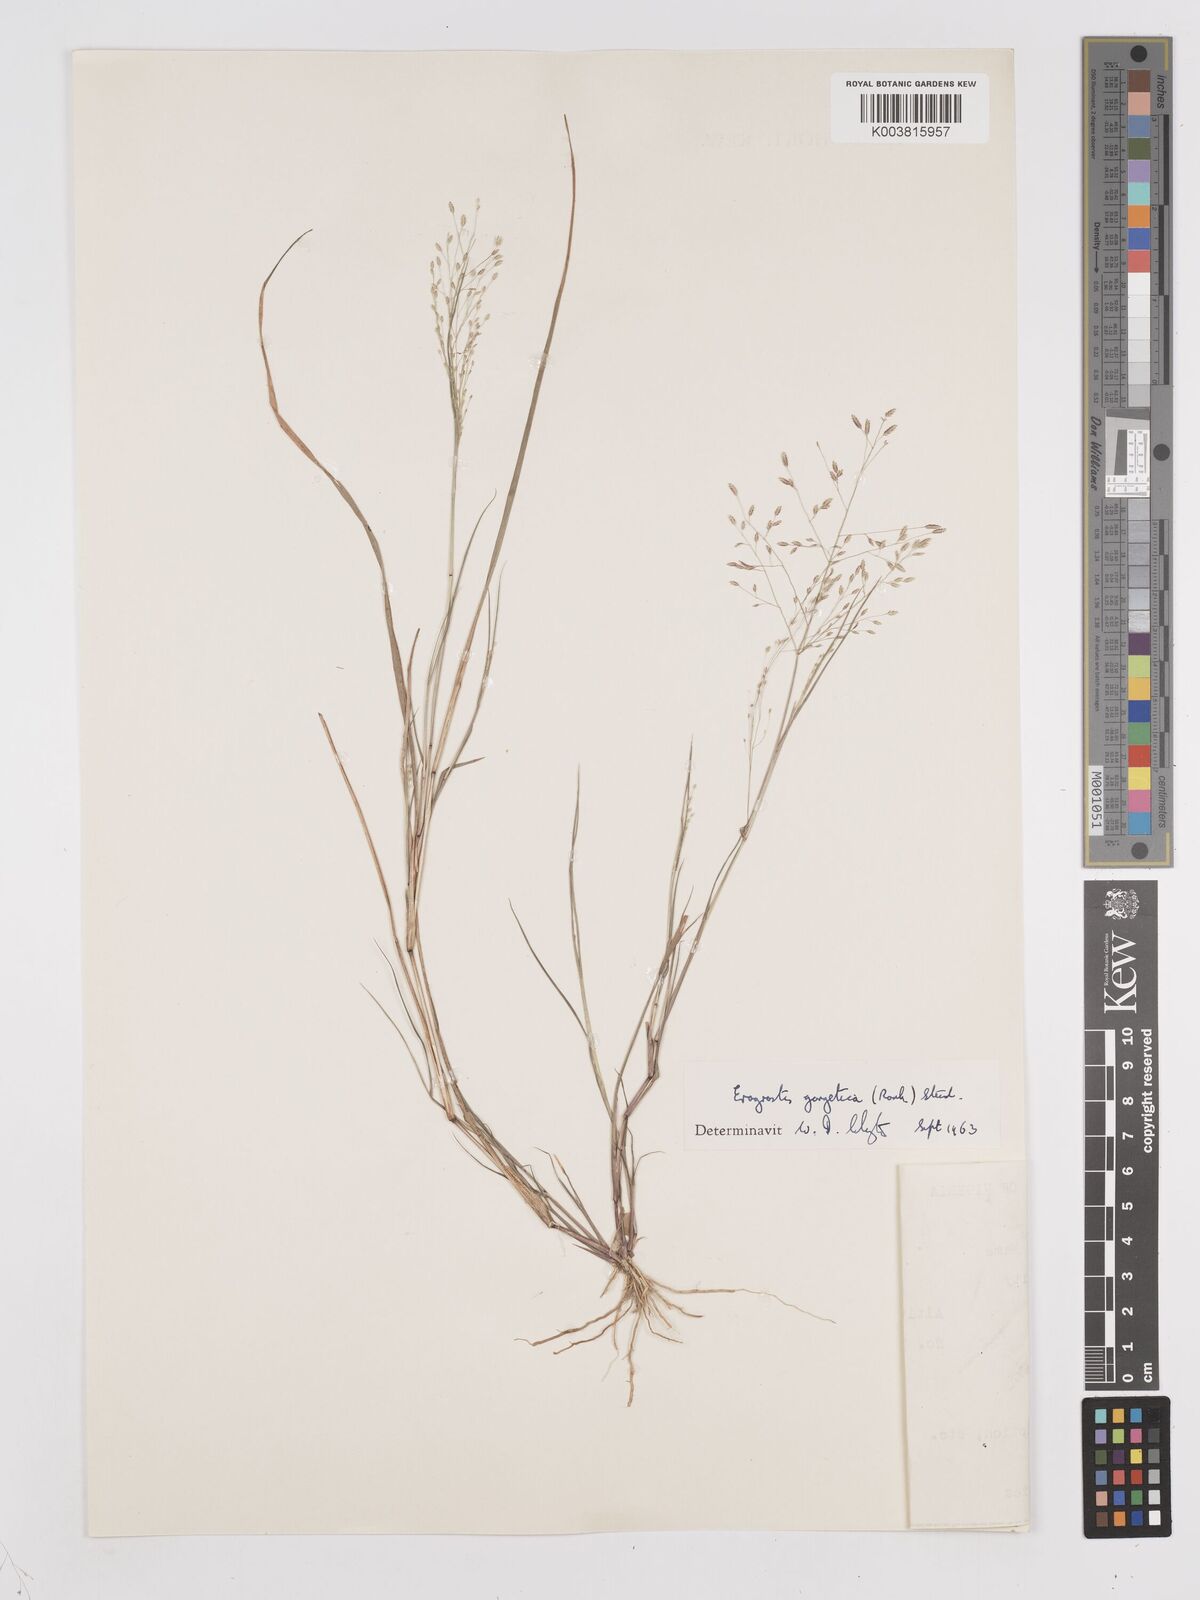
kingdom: Plantae
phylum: Tracheophyta
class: Liliopsida
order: Poales
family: Poaceae
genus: Eragrostis
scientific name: Eragrostis gangetica
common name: Slimflower lovegrass
